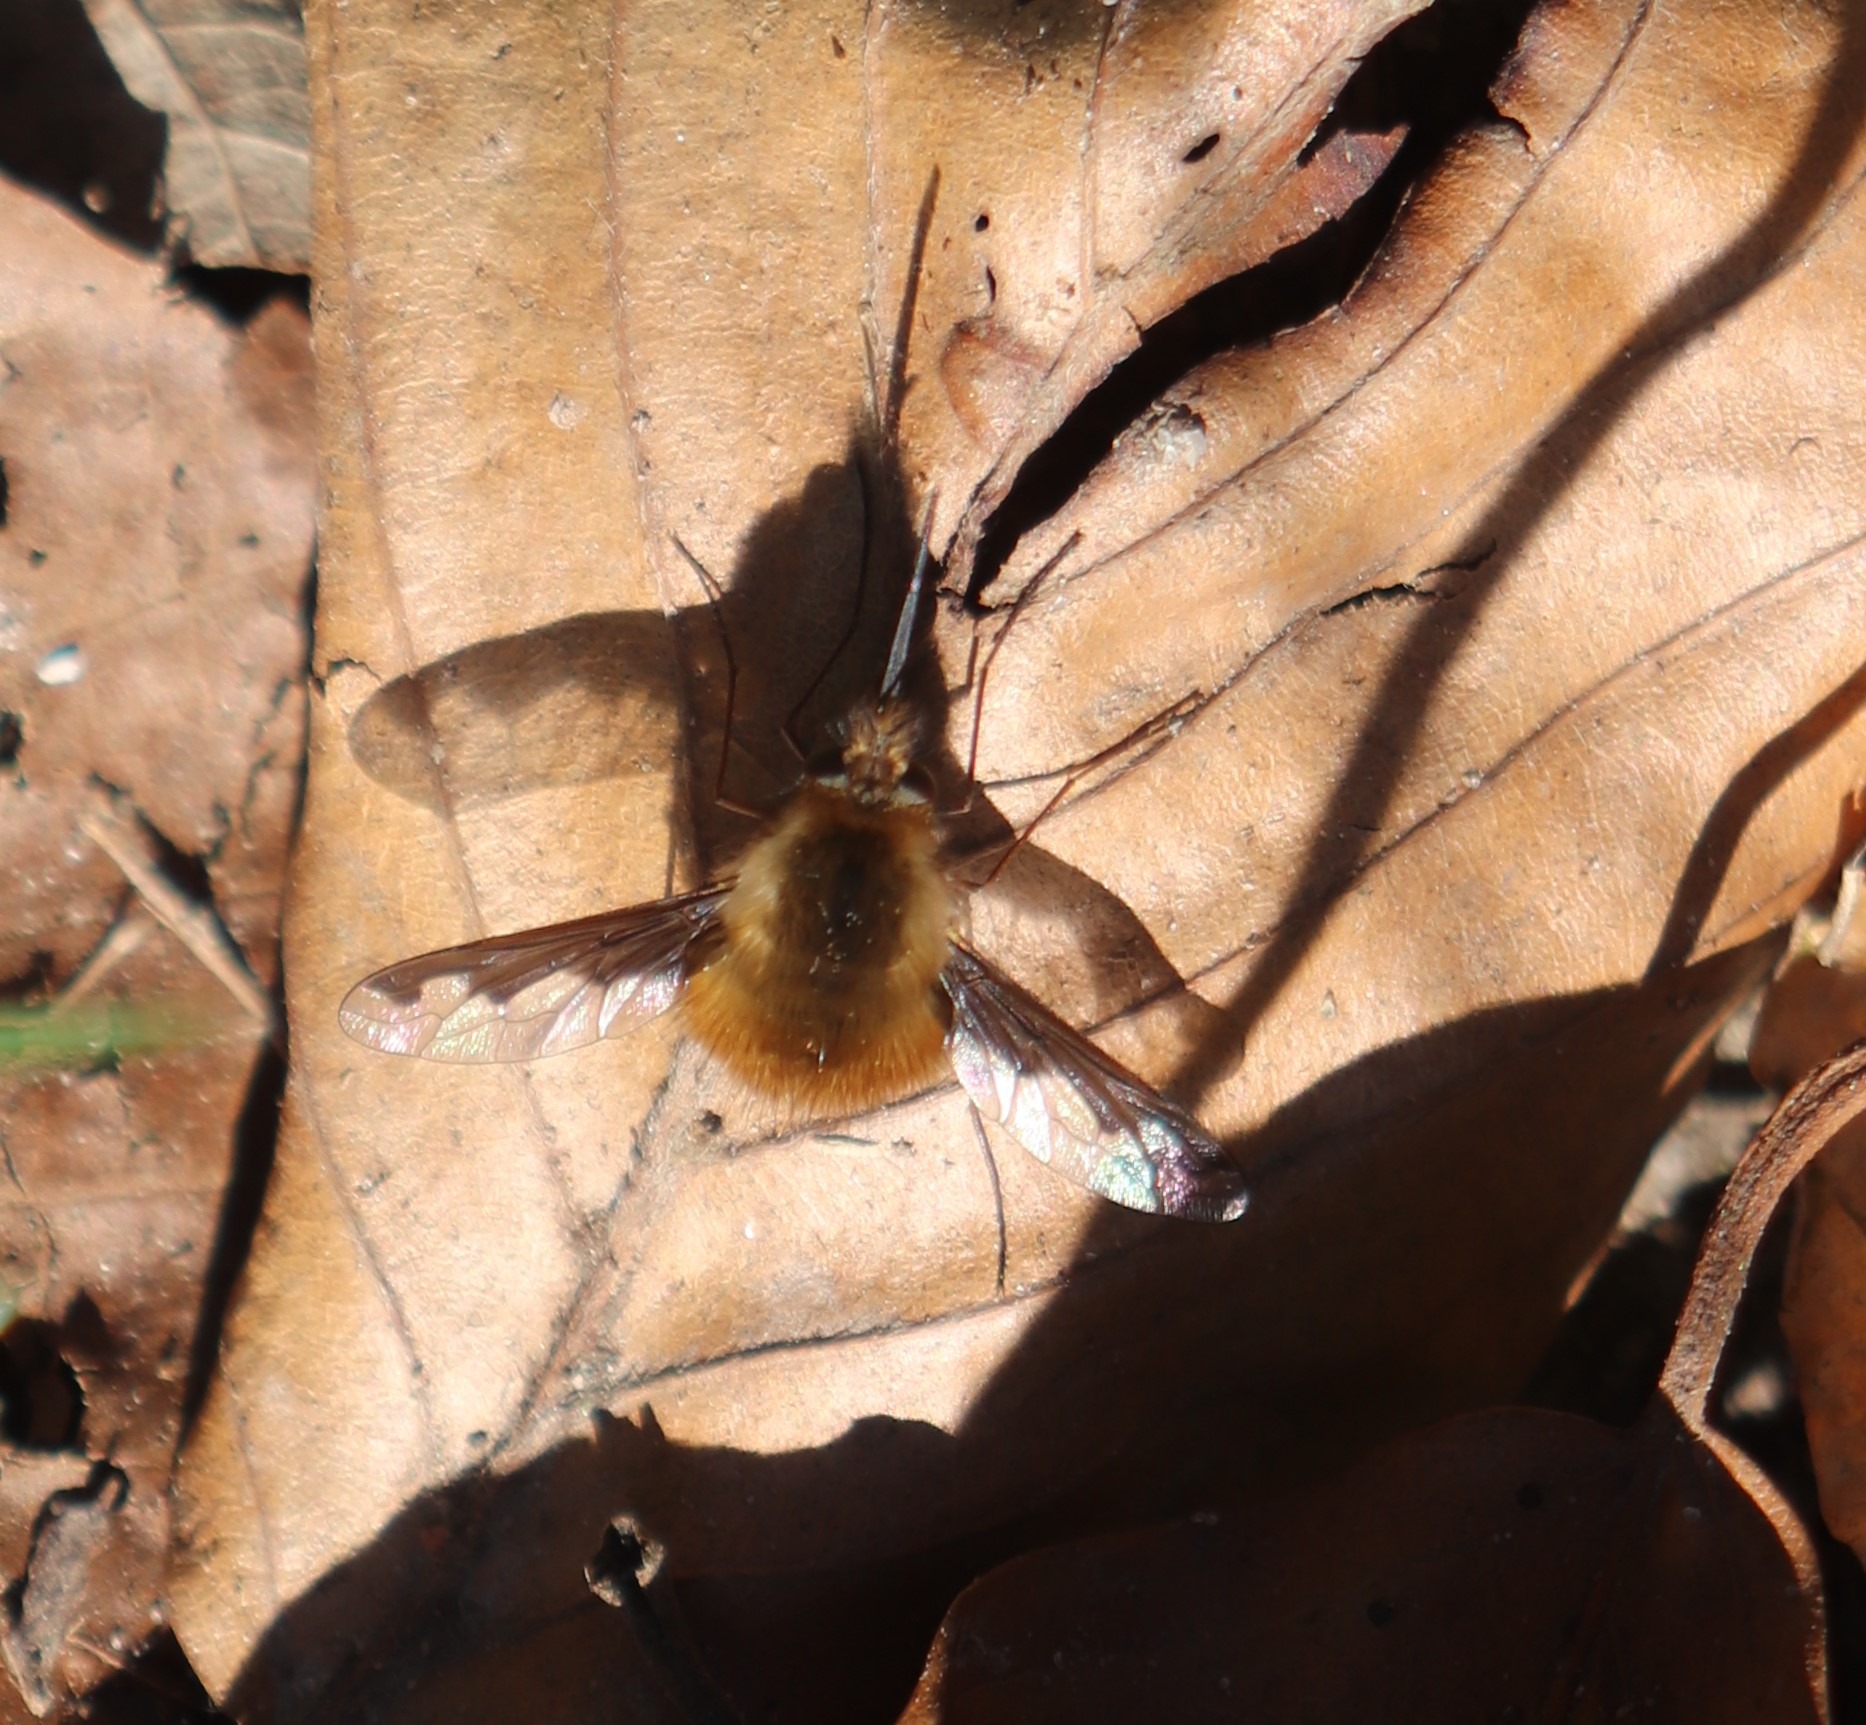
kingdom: Animalia
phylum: Arthropoda
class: Insecta
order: Diptera
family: Bombyliidae
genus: Bombylius
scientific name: Bombylius major
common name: Stor humleflue
